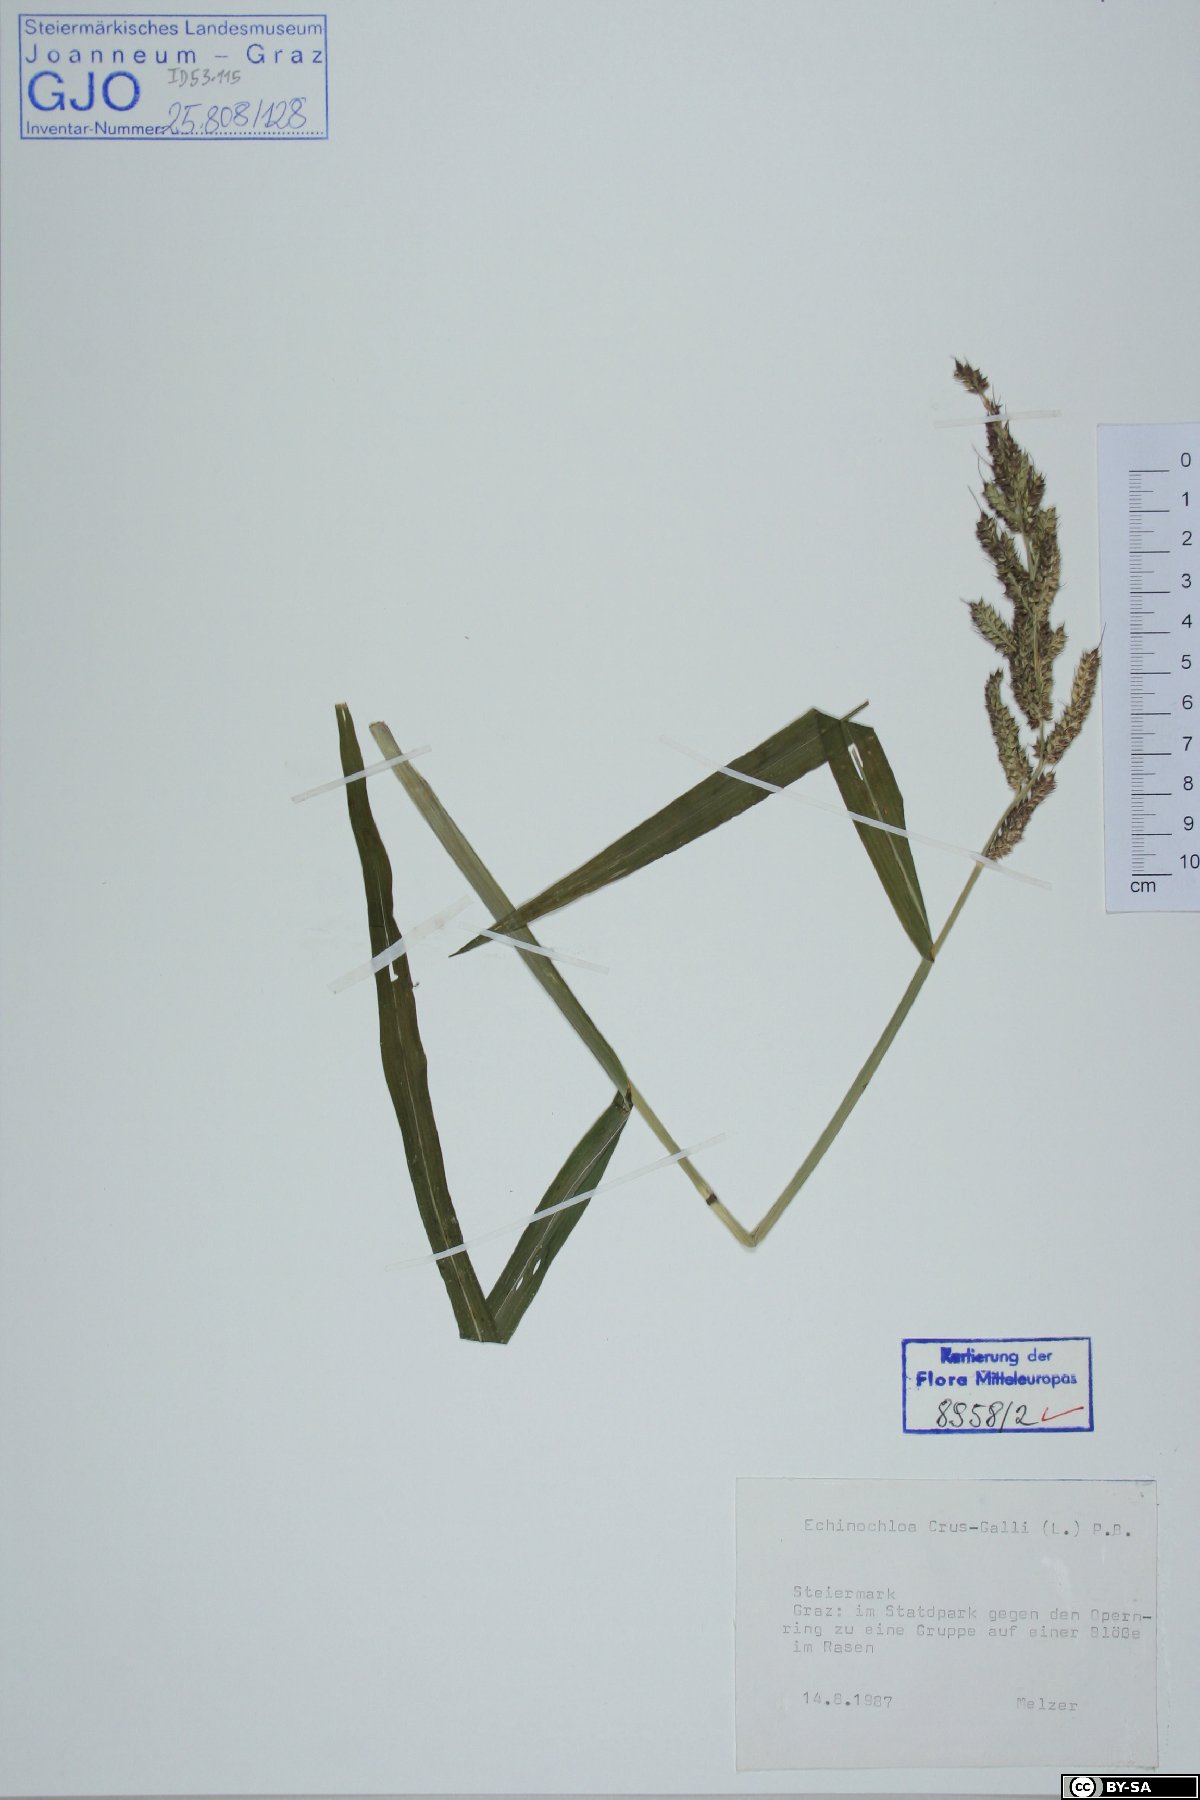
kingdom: Plantae
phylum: Tracheophyta
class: Liliopsida
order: Poales
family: Poaceae
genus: Echinochloa
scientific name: Echinochloa crus-galli
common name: Cockspur
